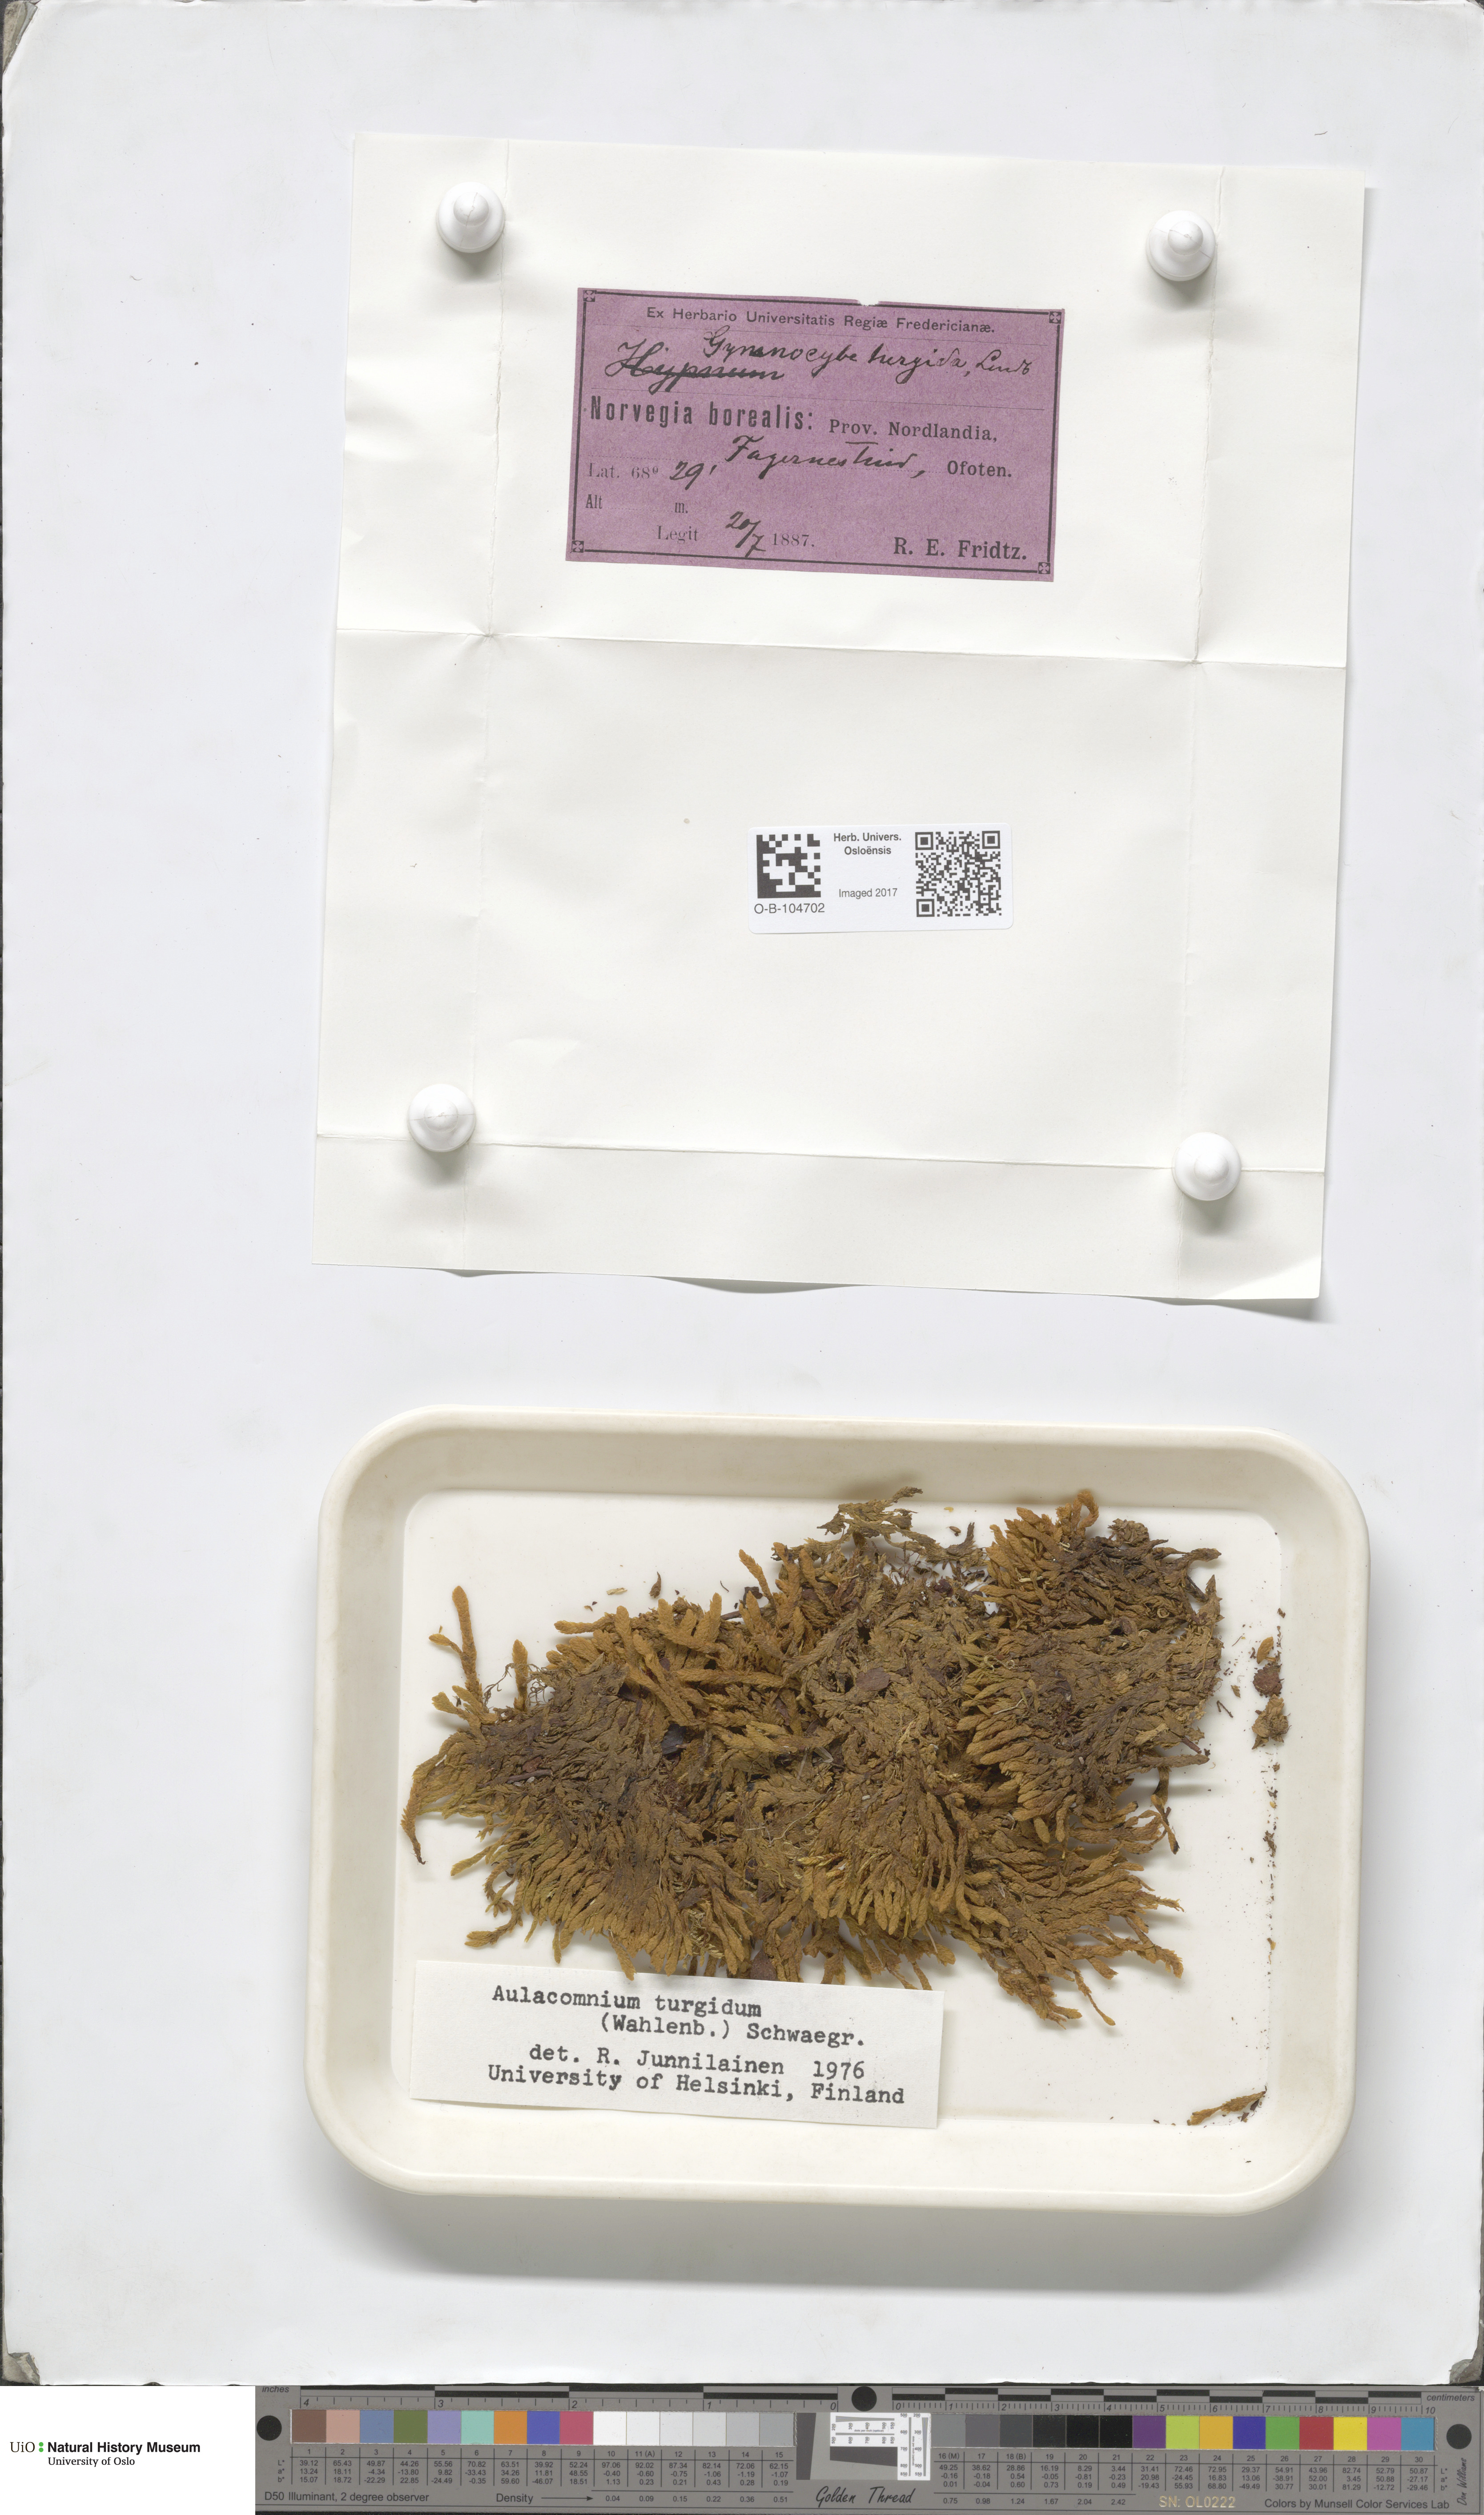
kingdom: Plantae
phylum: Bryophyta
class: Bryopsida
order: Aulacomniales
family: Aulacomniaceae
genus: Aulacomnium
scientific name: Aulacomnium turgidum
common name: Mountain groove moss
